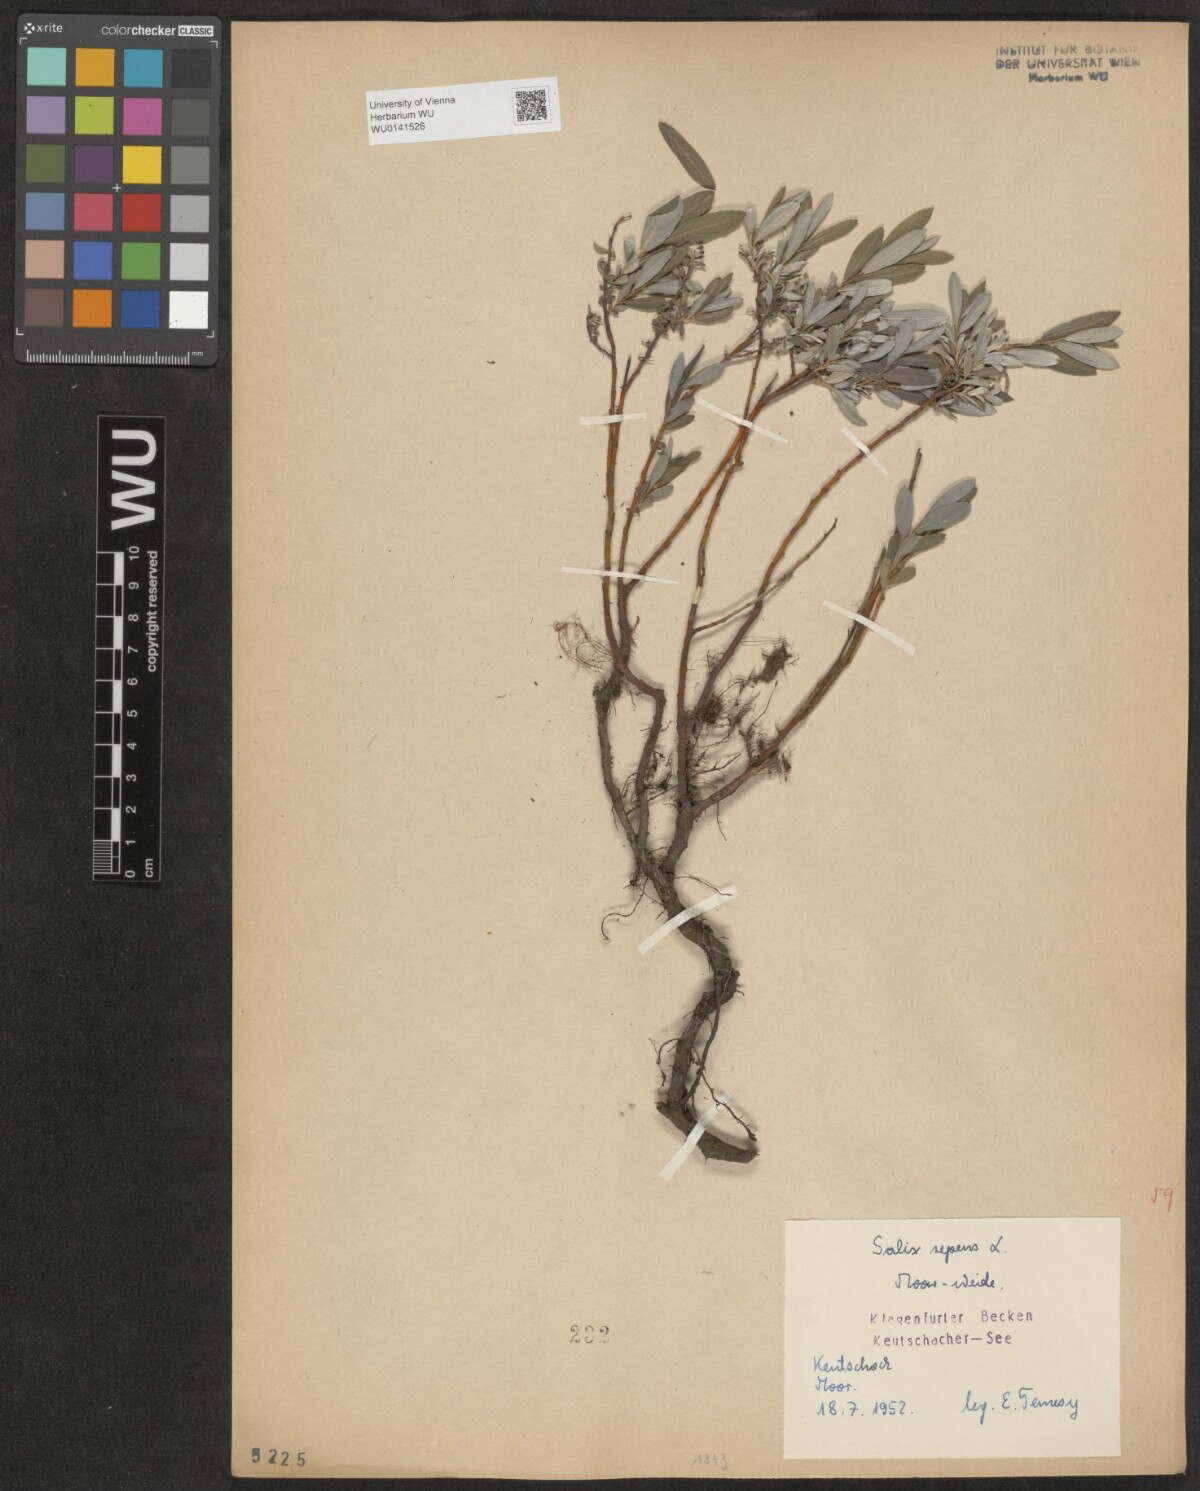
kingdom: Plantae
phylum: Tracheophyta
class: Magnoliopsida
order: Malpighiales
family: Salicaceae
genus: Salix
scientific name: Salix repens
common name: Creeping willow
